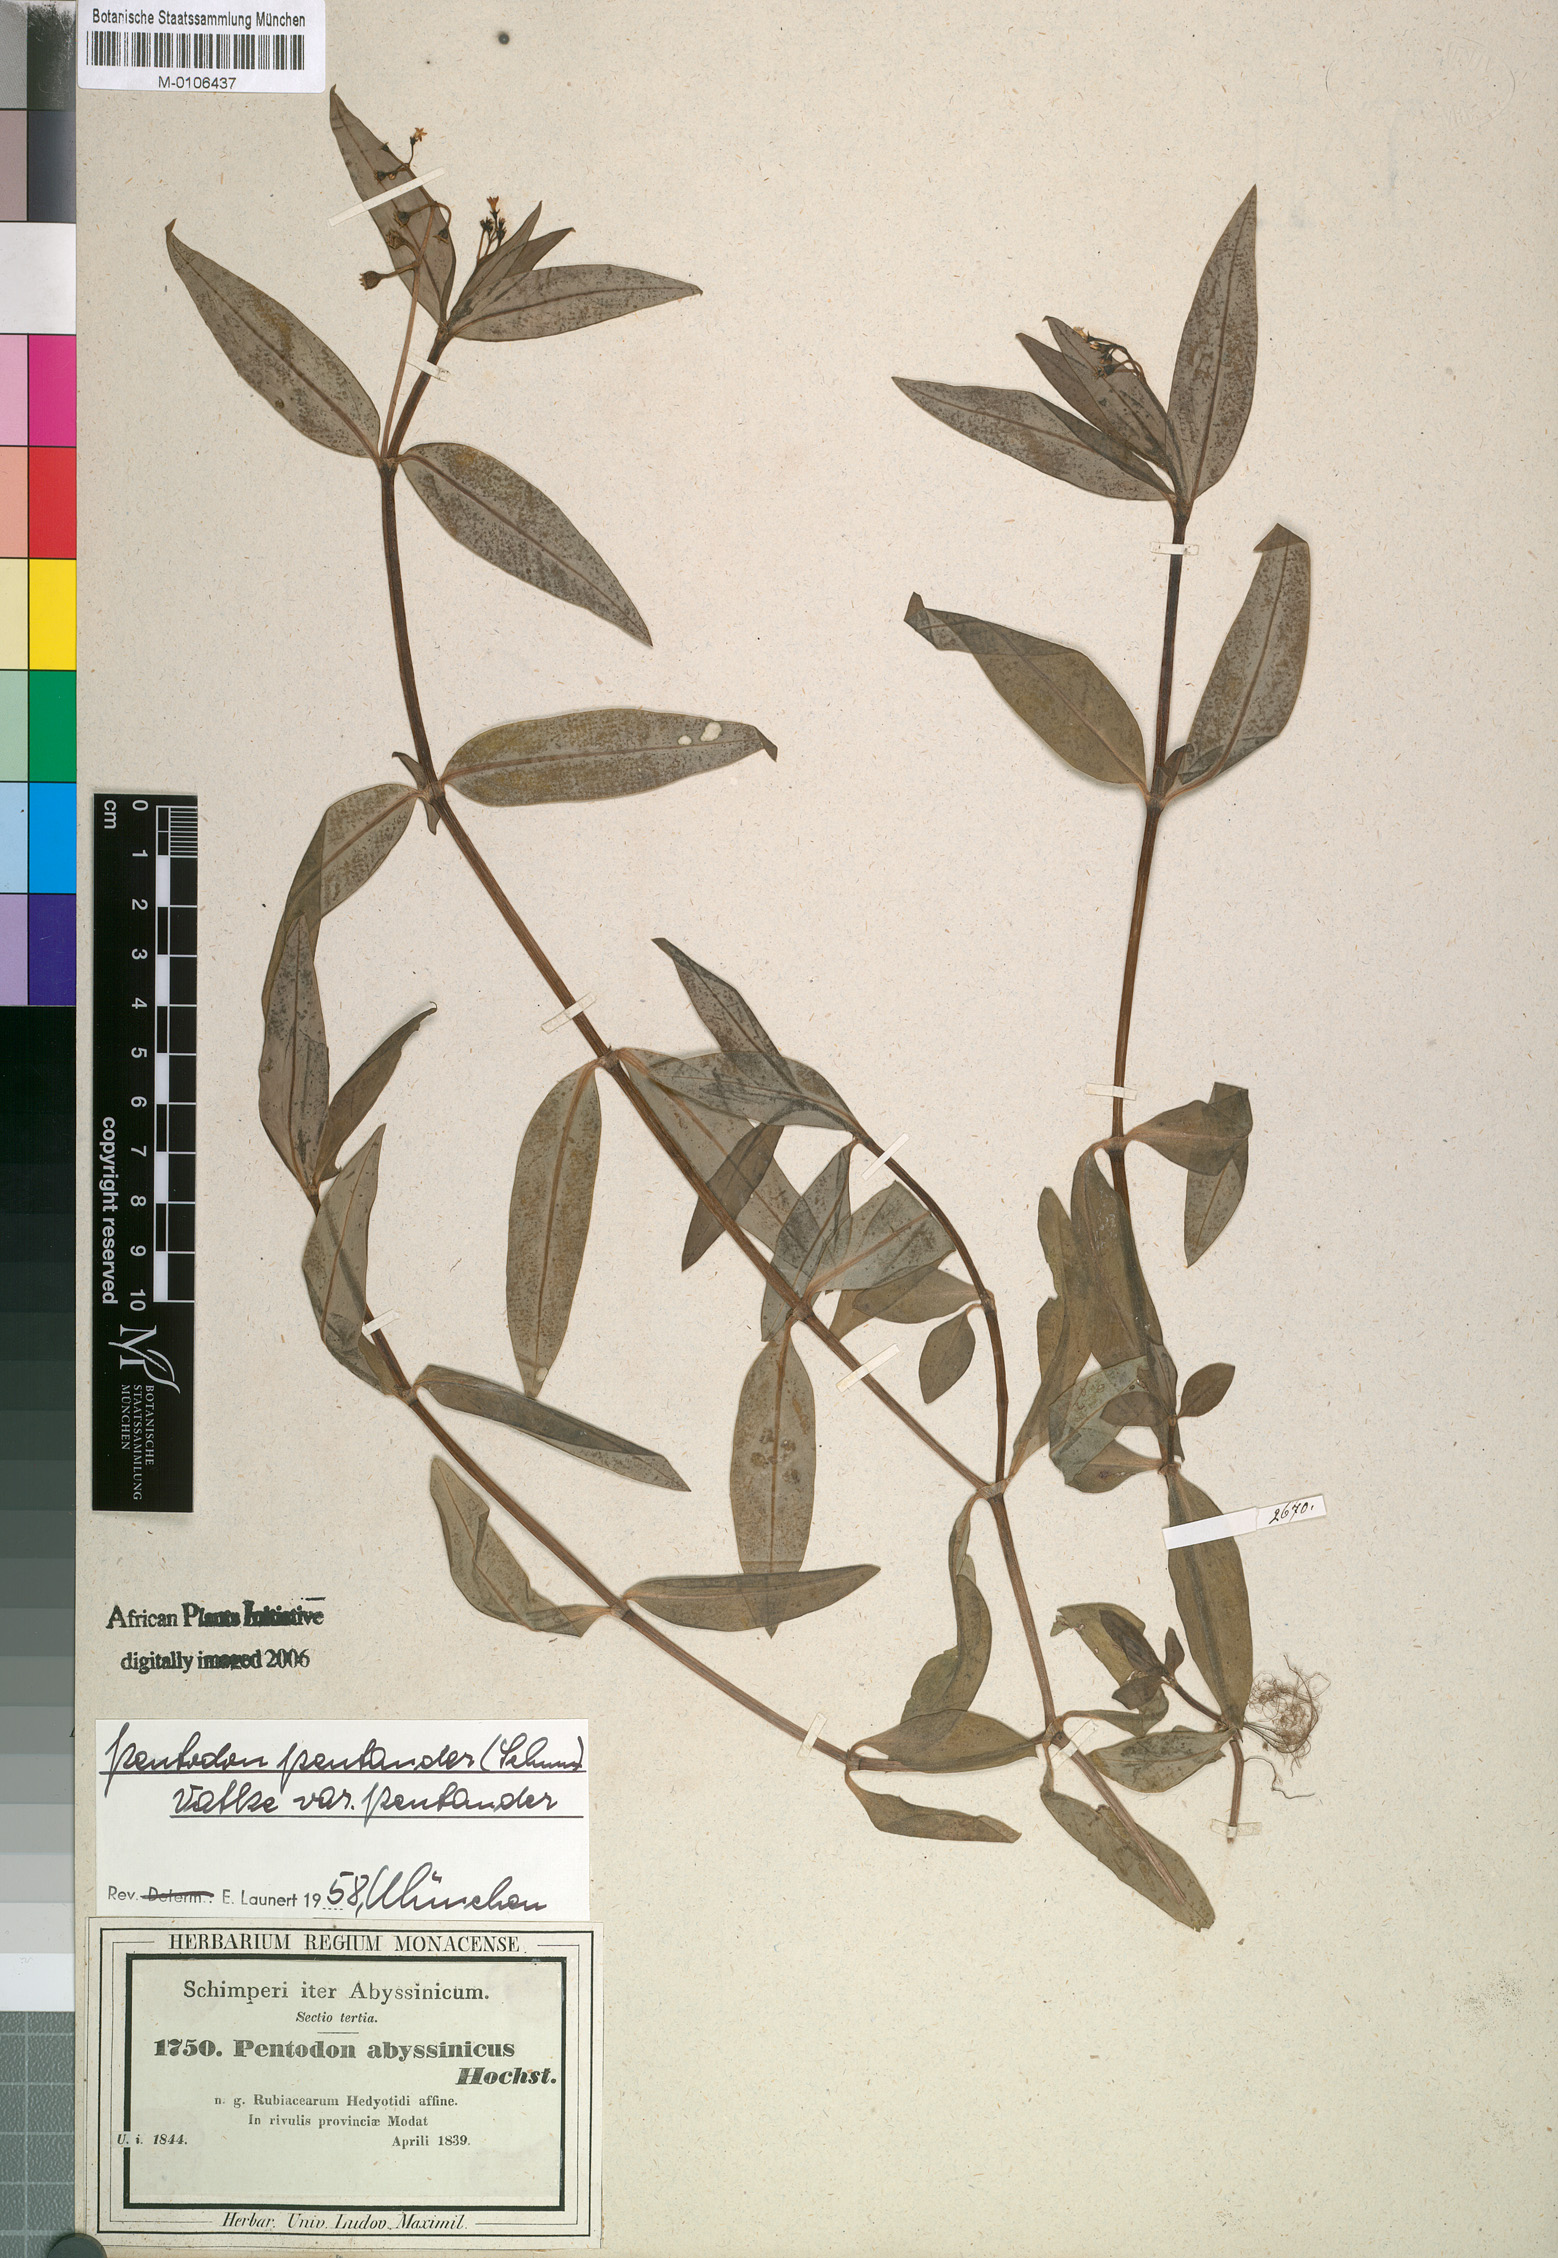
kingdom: Plantae
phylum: Tracheophyta
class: Magnoliopsida
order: Gentianales
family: Rubiaceae
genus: Pentodon
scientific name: Pentodon pentandrus
